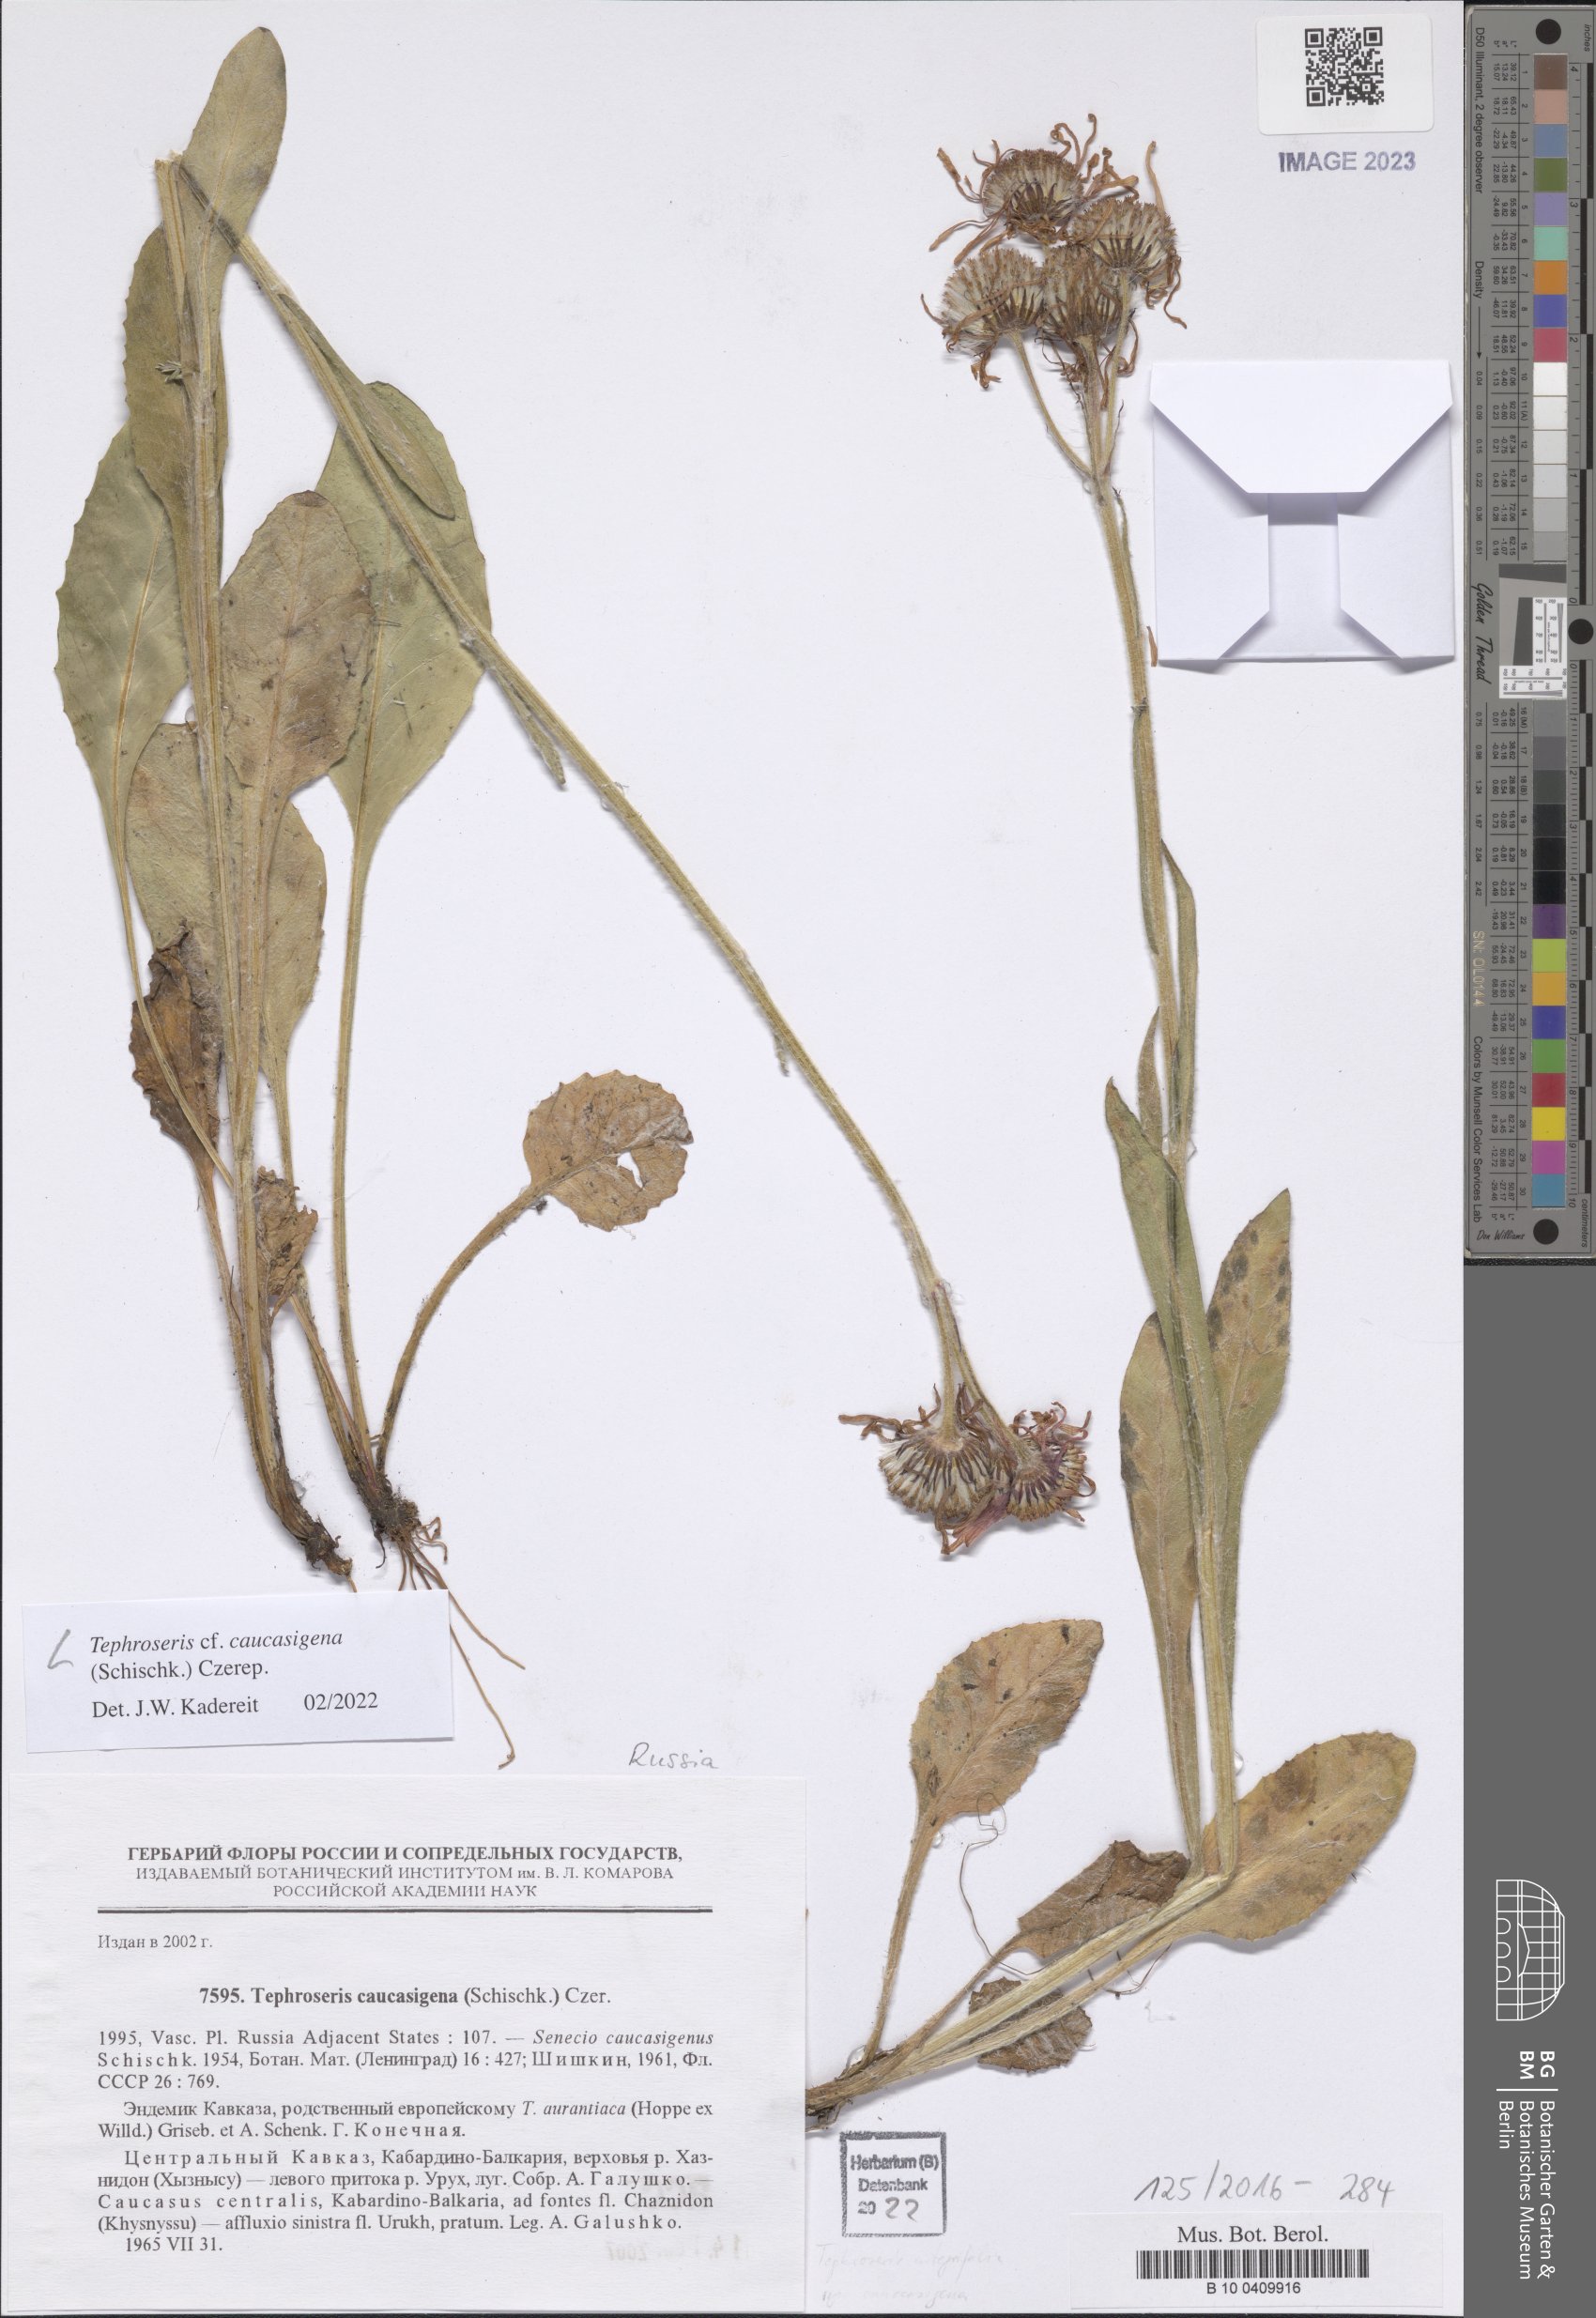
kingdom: Plantae
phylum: Tracheophyta
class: Magnoliopsida
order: Asterales
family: Asteraceae
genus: Tephroseris
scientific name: Tephroseris integrifolia
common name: Field fleawort
